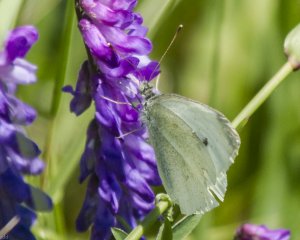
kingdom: Animalia
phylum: Arthropoda
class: Insecta
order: Lepidoptera
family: Pieridae
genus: Pieris
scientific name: Pieris rapae
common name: Cabbage White
